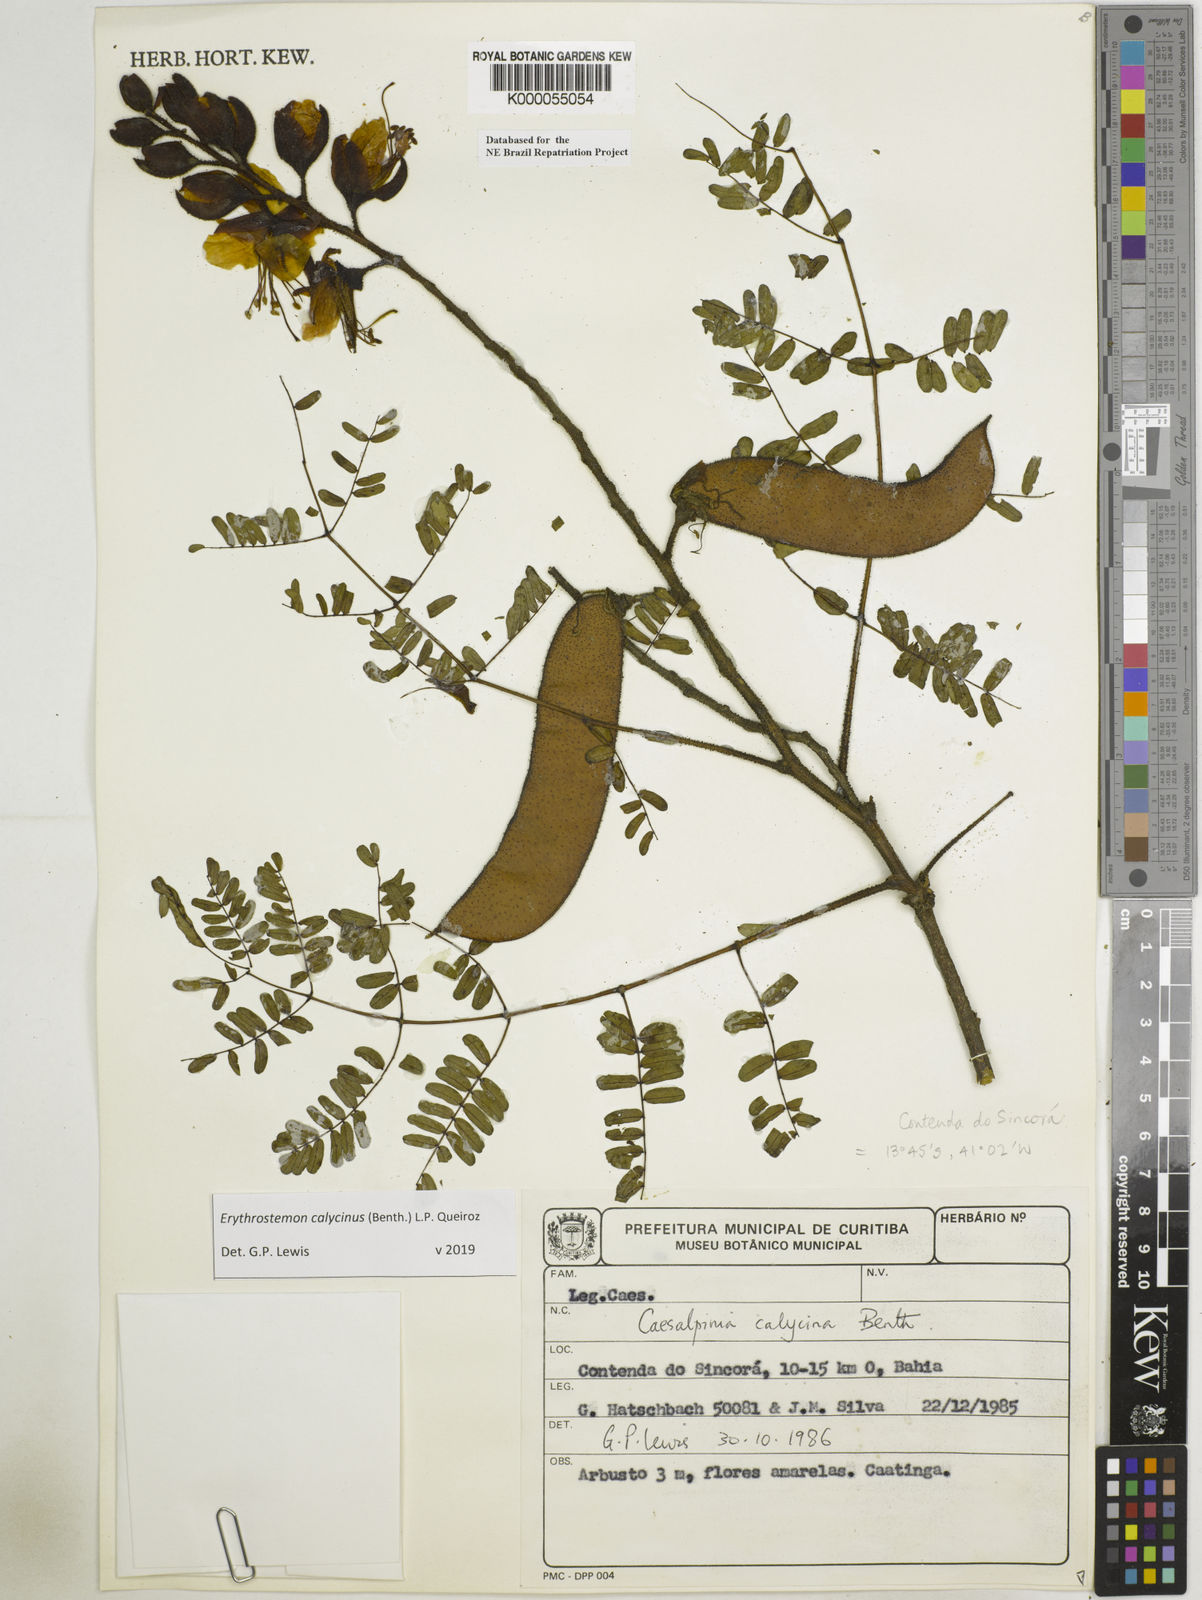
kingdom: Plantae
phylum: Tracheophyta
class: Magnoliopsida
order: Fabales
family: Fabaceae
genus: Erythrostemon
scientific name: Erythrostemon calycinus
